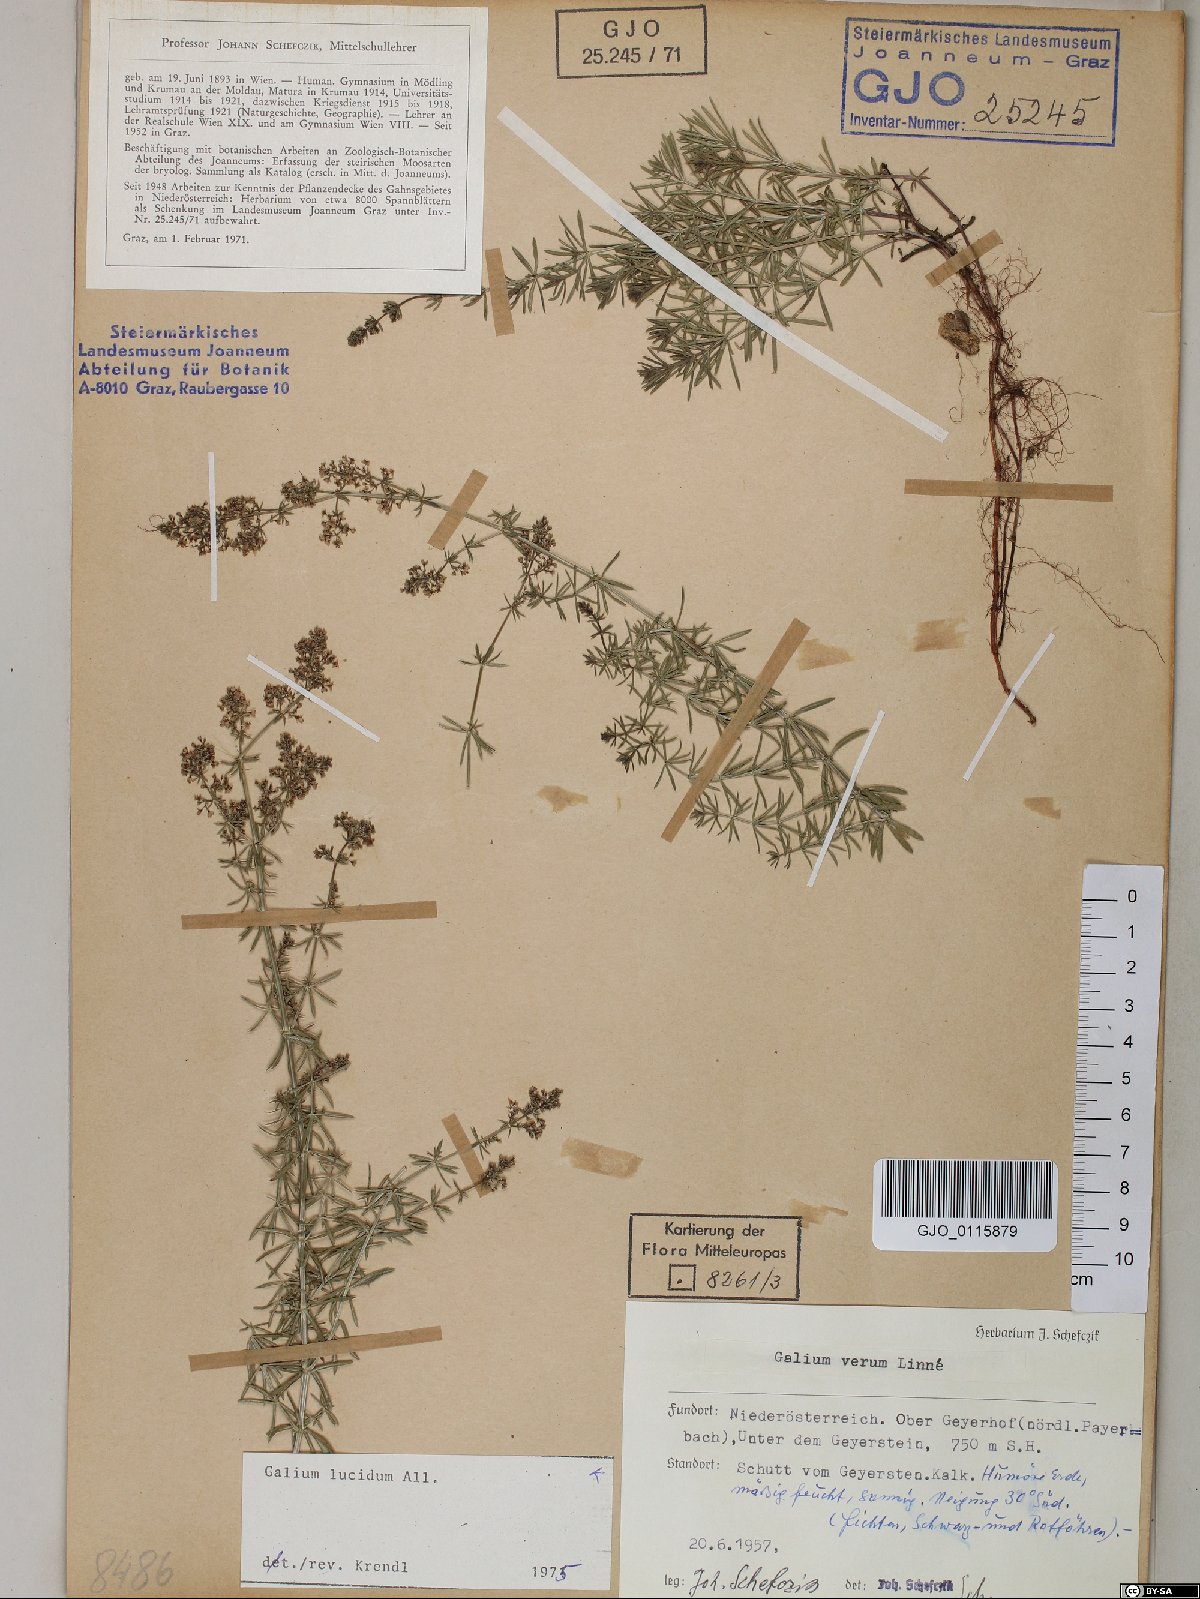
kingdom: Plantae
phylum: Tracheophyta
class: Magnoliopsida
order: Gentianales
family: Rubiaceae
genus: Galium
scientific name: Galium lucidum
